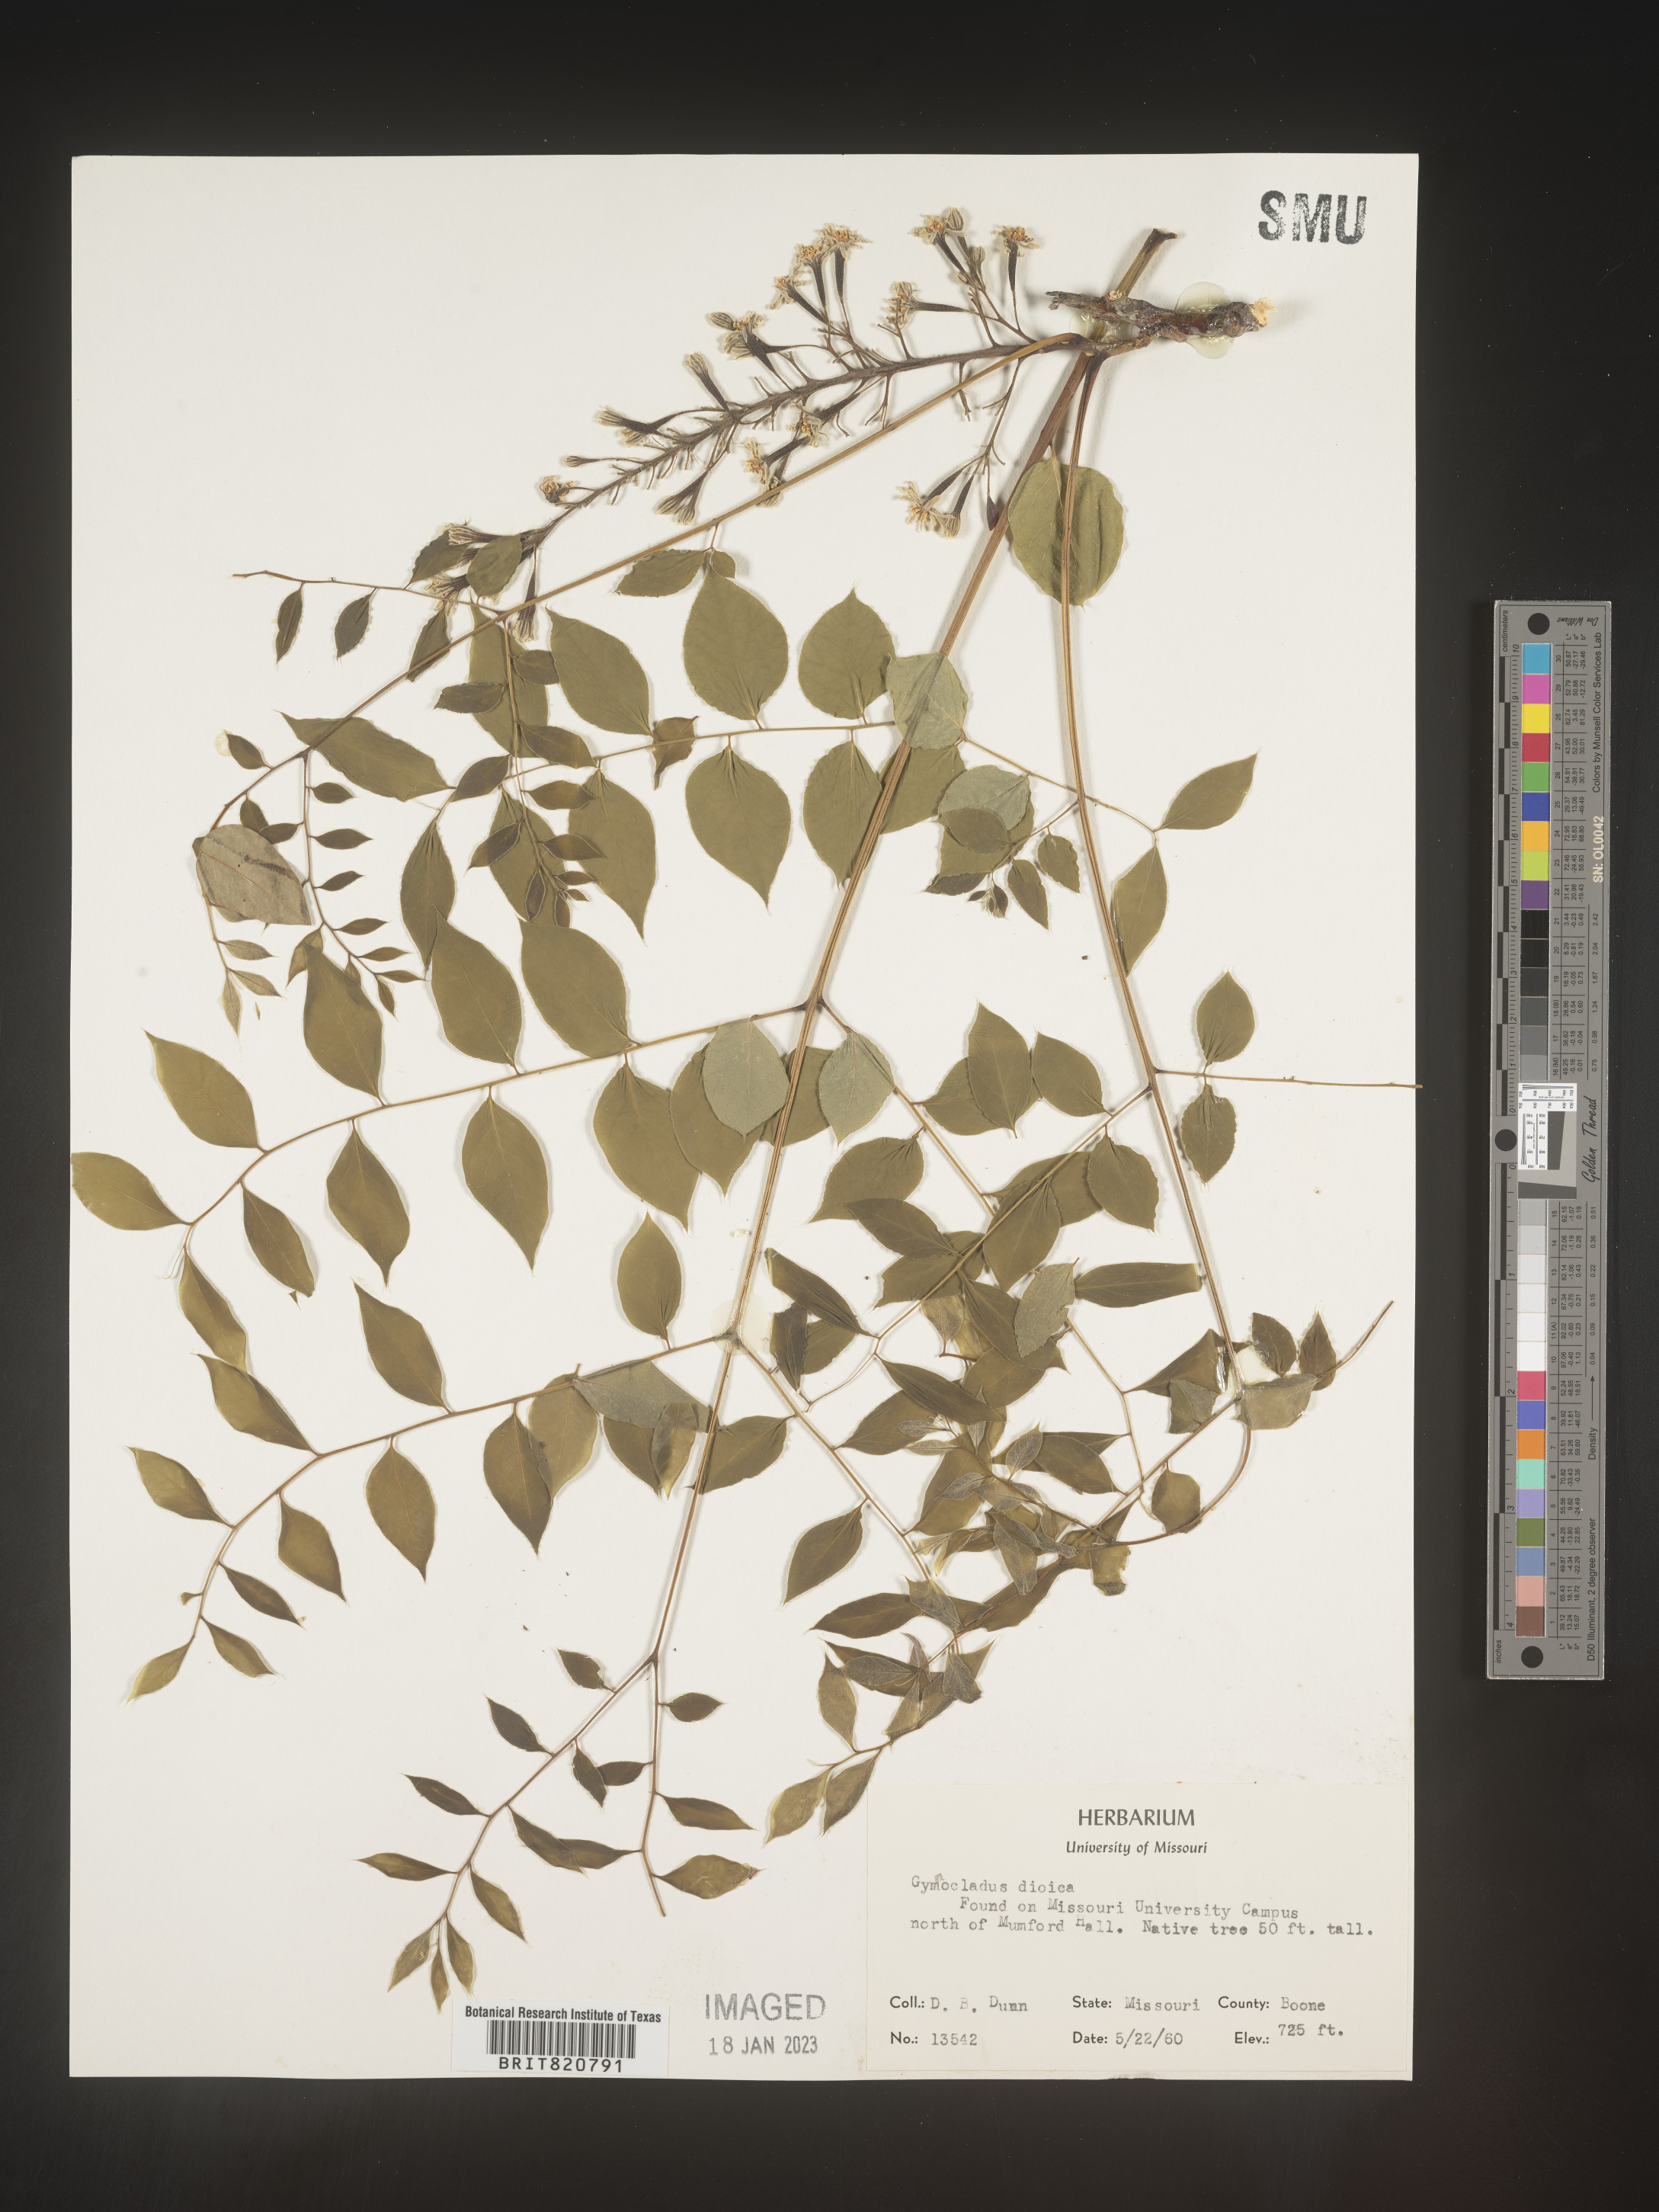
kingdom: Plantae
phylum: Tracheophyta
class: Magnoliopsida
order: Fabales
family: Fabaceae
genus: Gymnocladus
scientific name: Gymnocladus dioicus
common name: Kentucky coffee-tree
